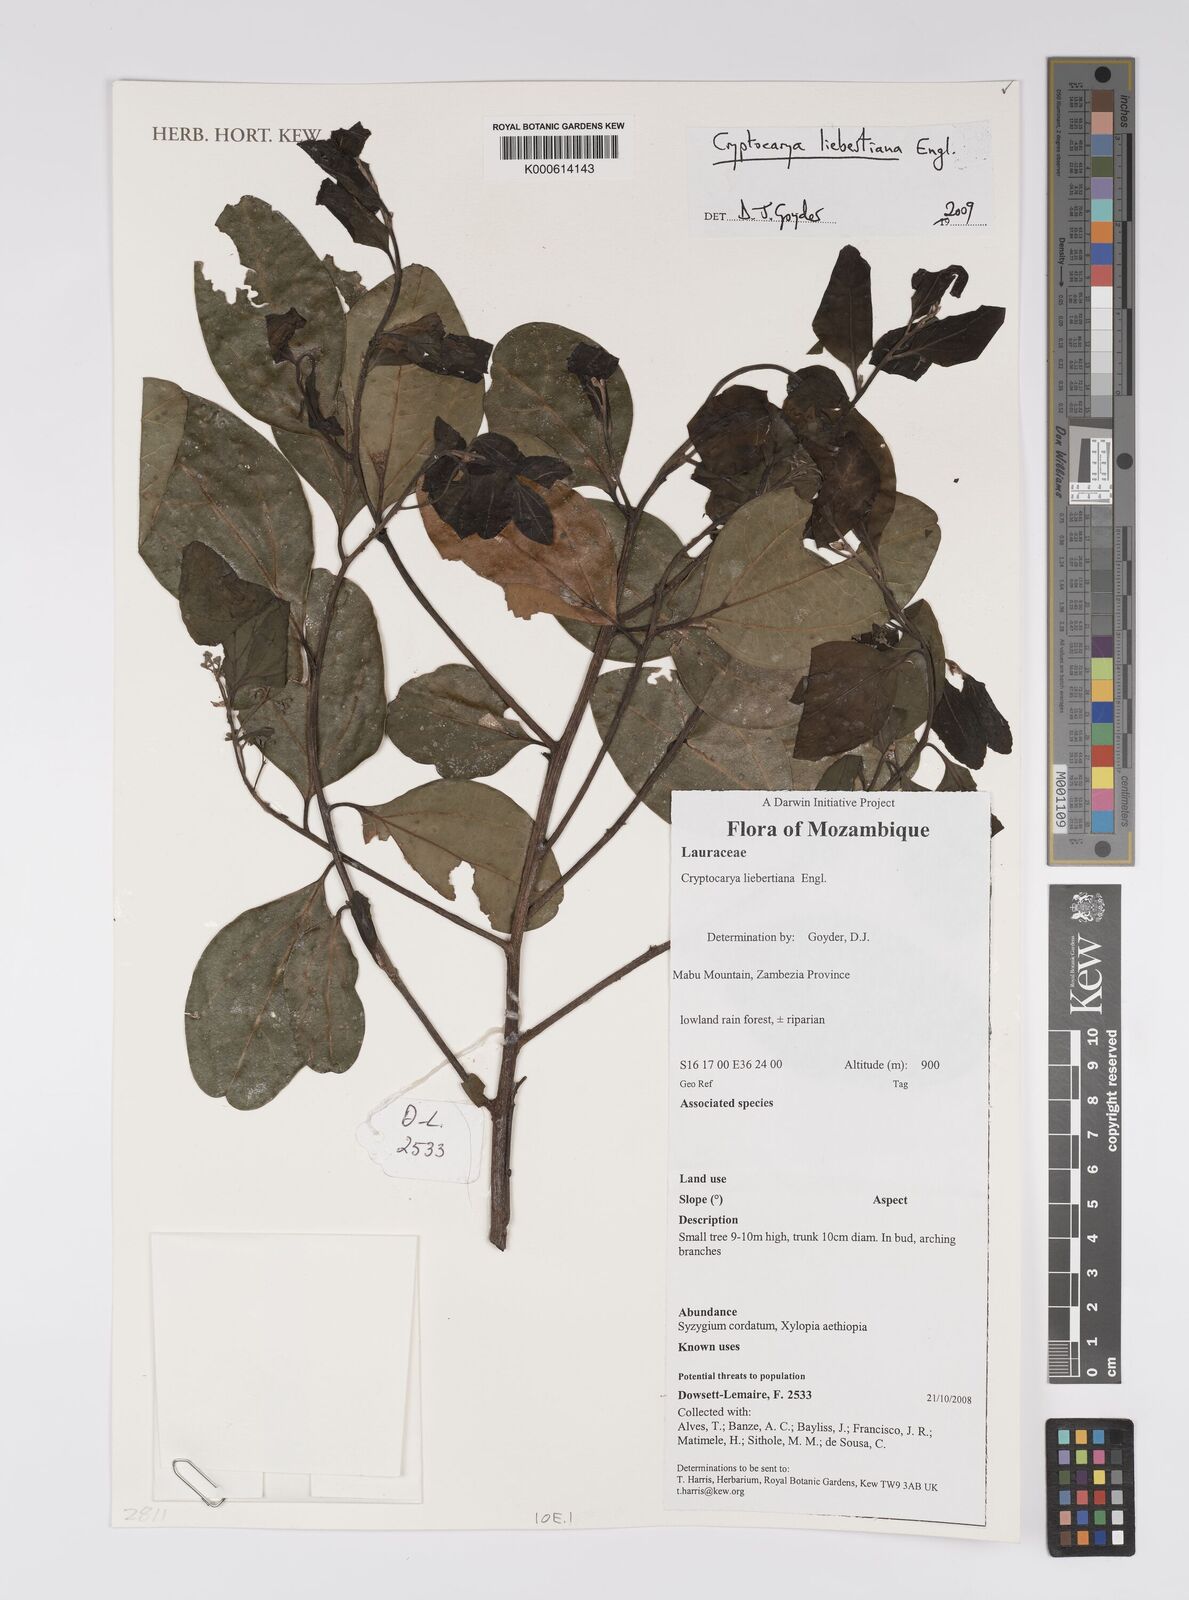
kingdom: Plantae
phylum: Tracheophyta
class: Magnoliopsida
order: Laurales
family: Lauraceae
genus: Cryptocarya
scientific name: Cryptocarya liebertiana
